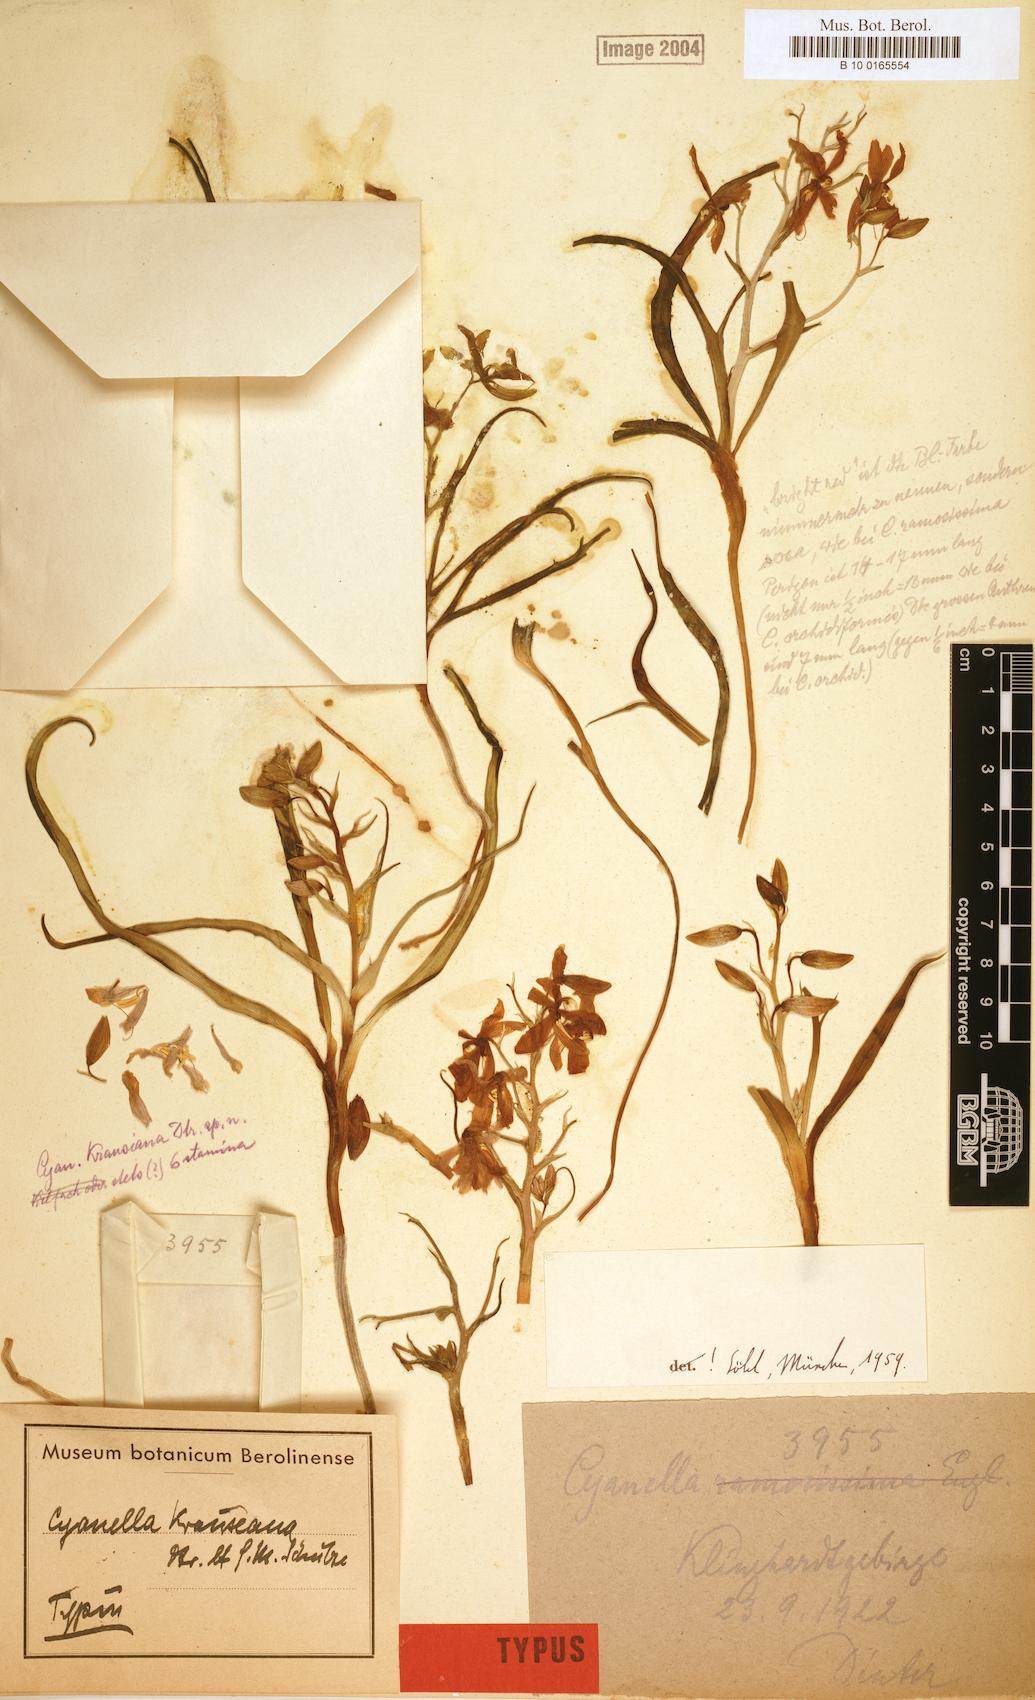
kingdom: Plantae
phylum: Tracheophyta
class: Liliopsida
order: Asparagales
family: Tecophilaeaceae
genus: Cyanella
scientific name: Cyanella ramosissima
